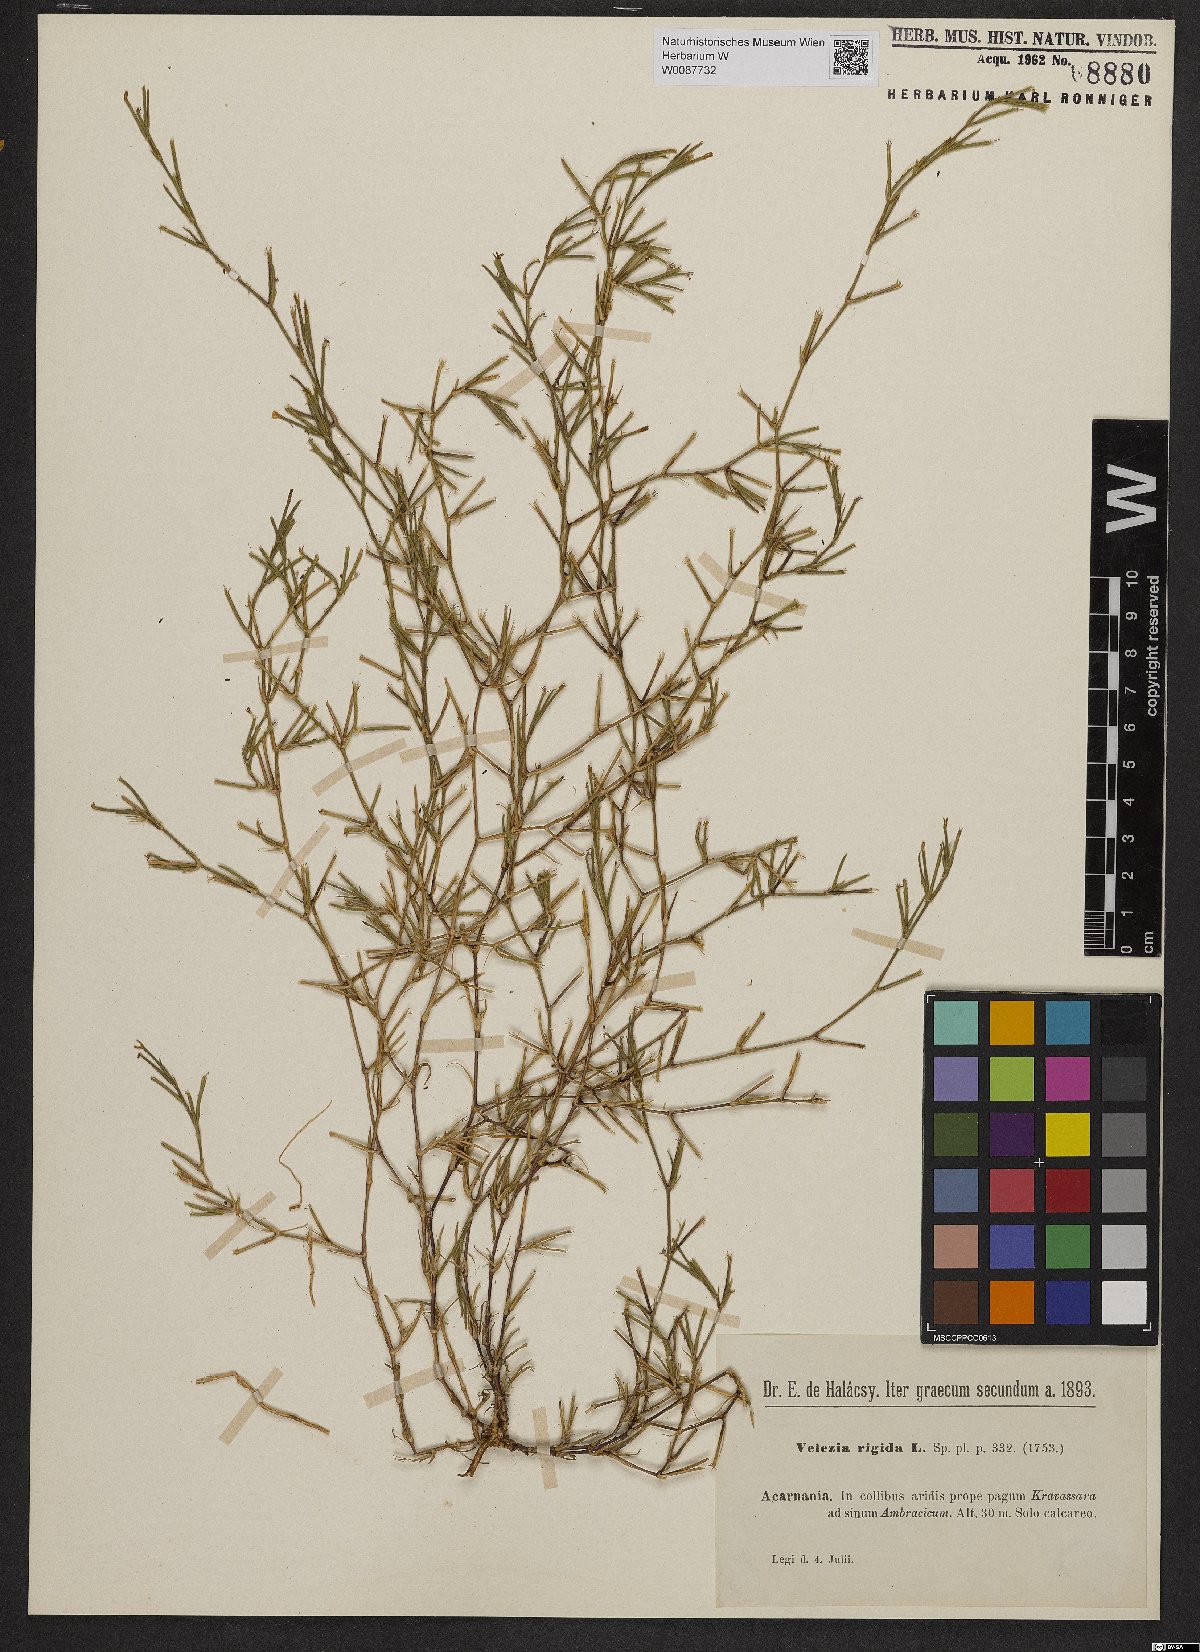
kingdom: Plantae
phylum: Tracheophyta
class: Magnoliopsida
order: Caryophyllales
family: Caryophyllaceae
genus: Dianthus
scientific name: Dianthus nudiflorus
